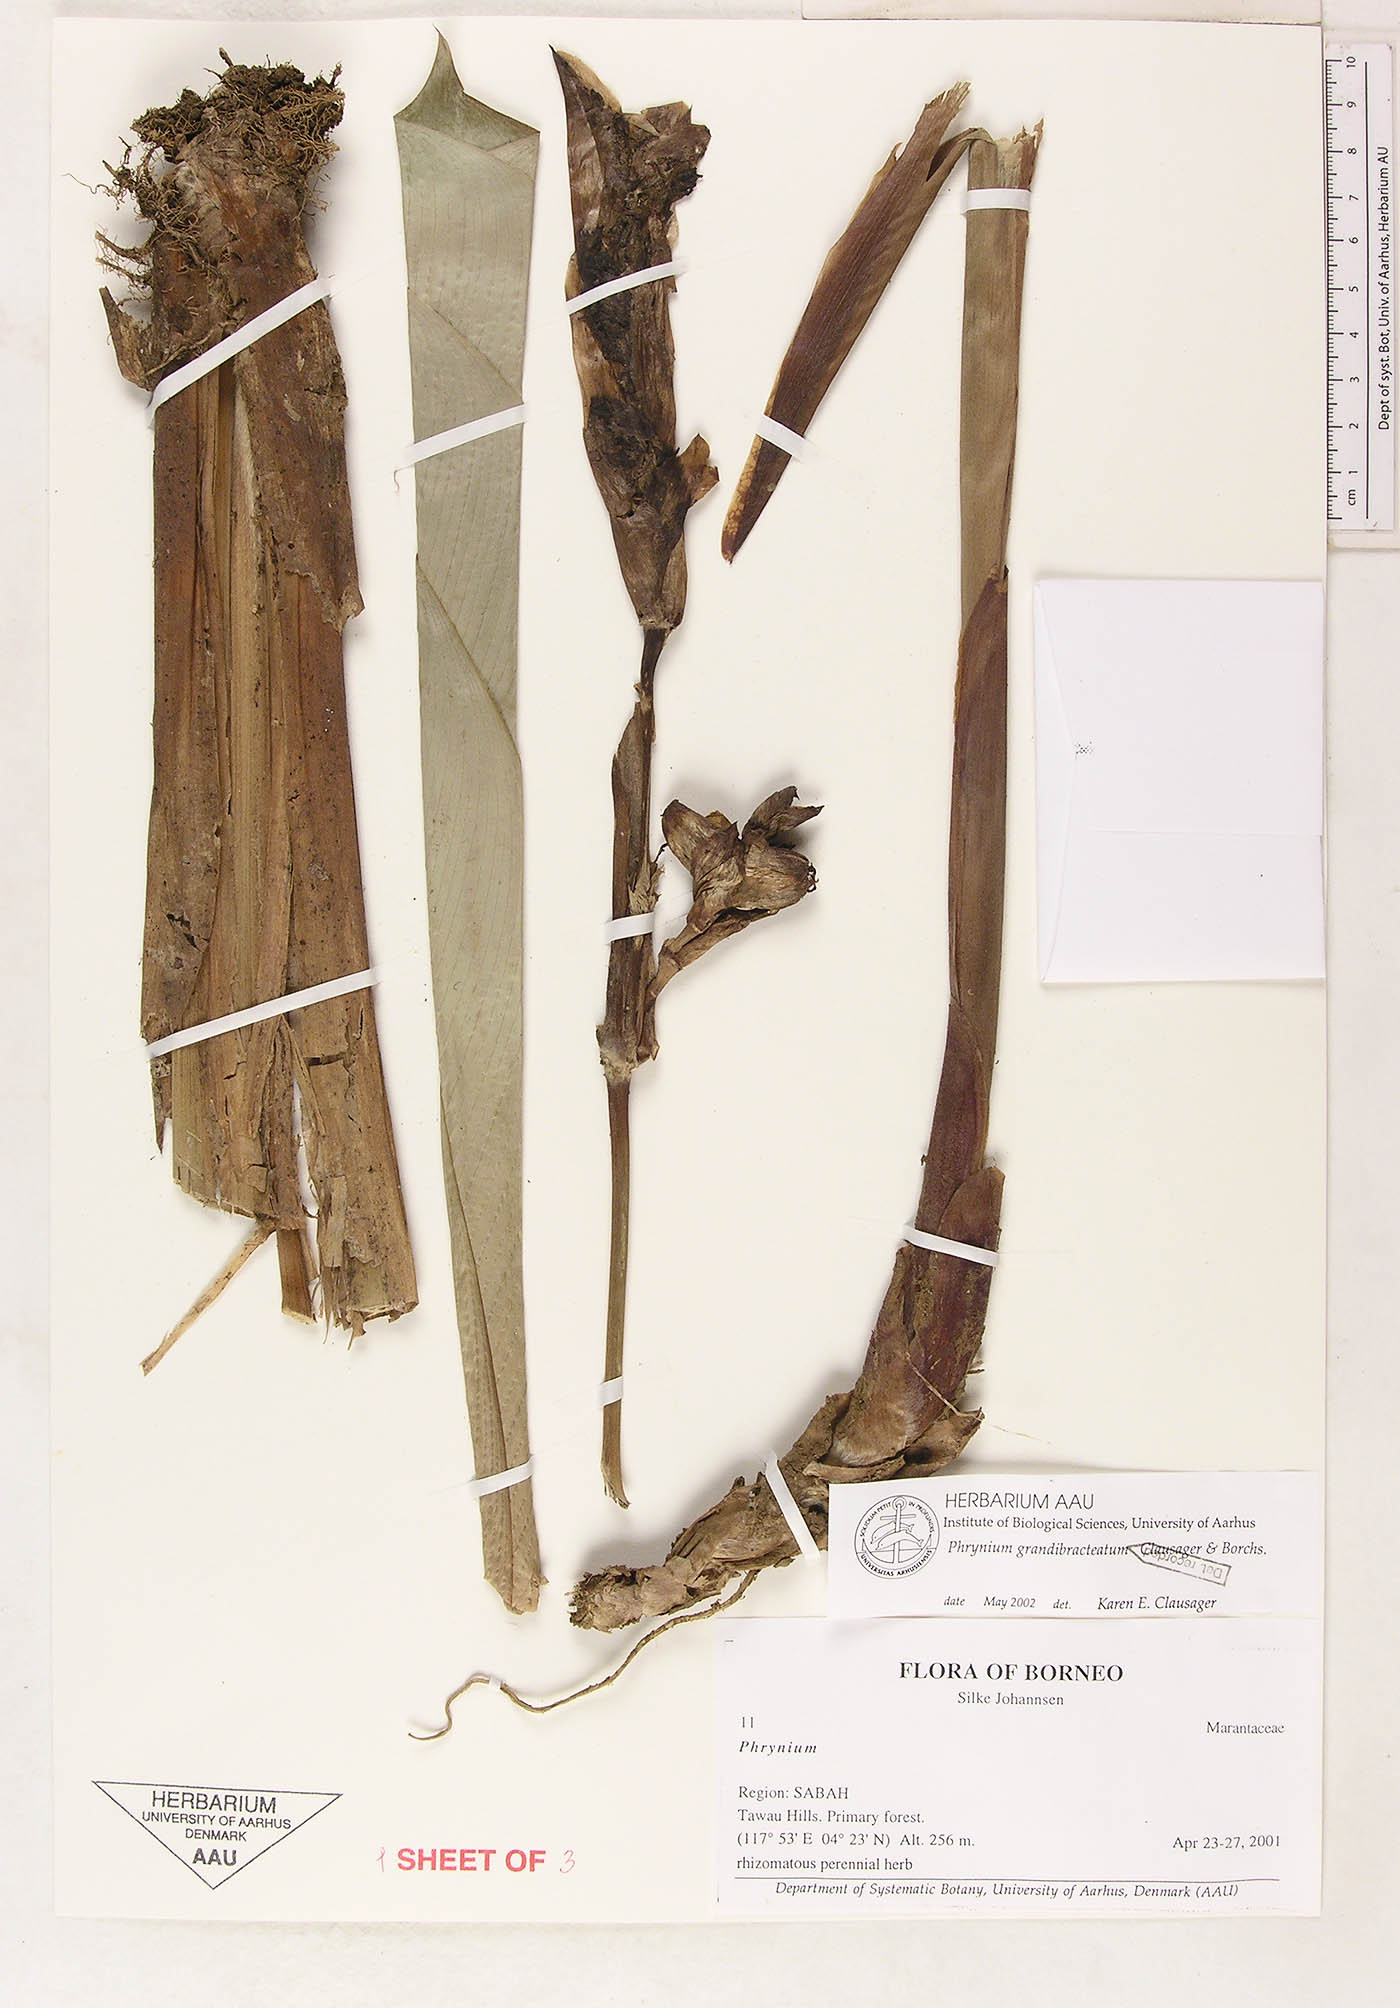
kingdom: Plantae
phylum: Tracheophyta
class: Liliopsida
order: Zingiberales
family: Marantaceae
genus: Phrynium
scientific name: Phrynium grandibracteatum
